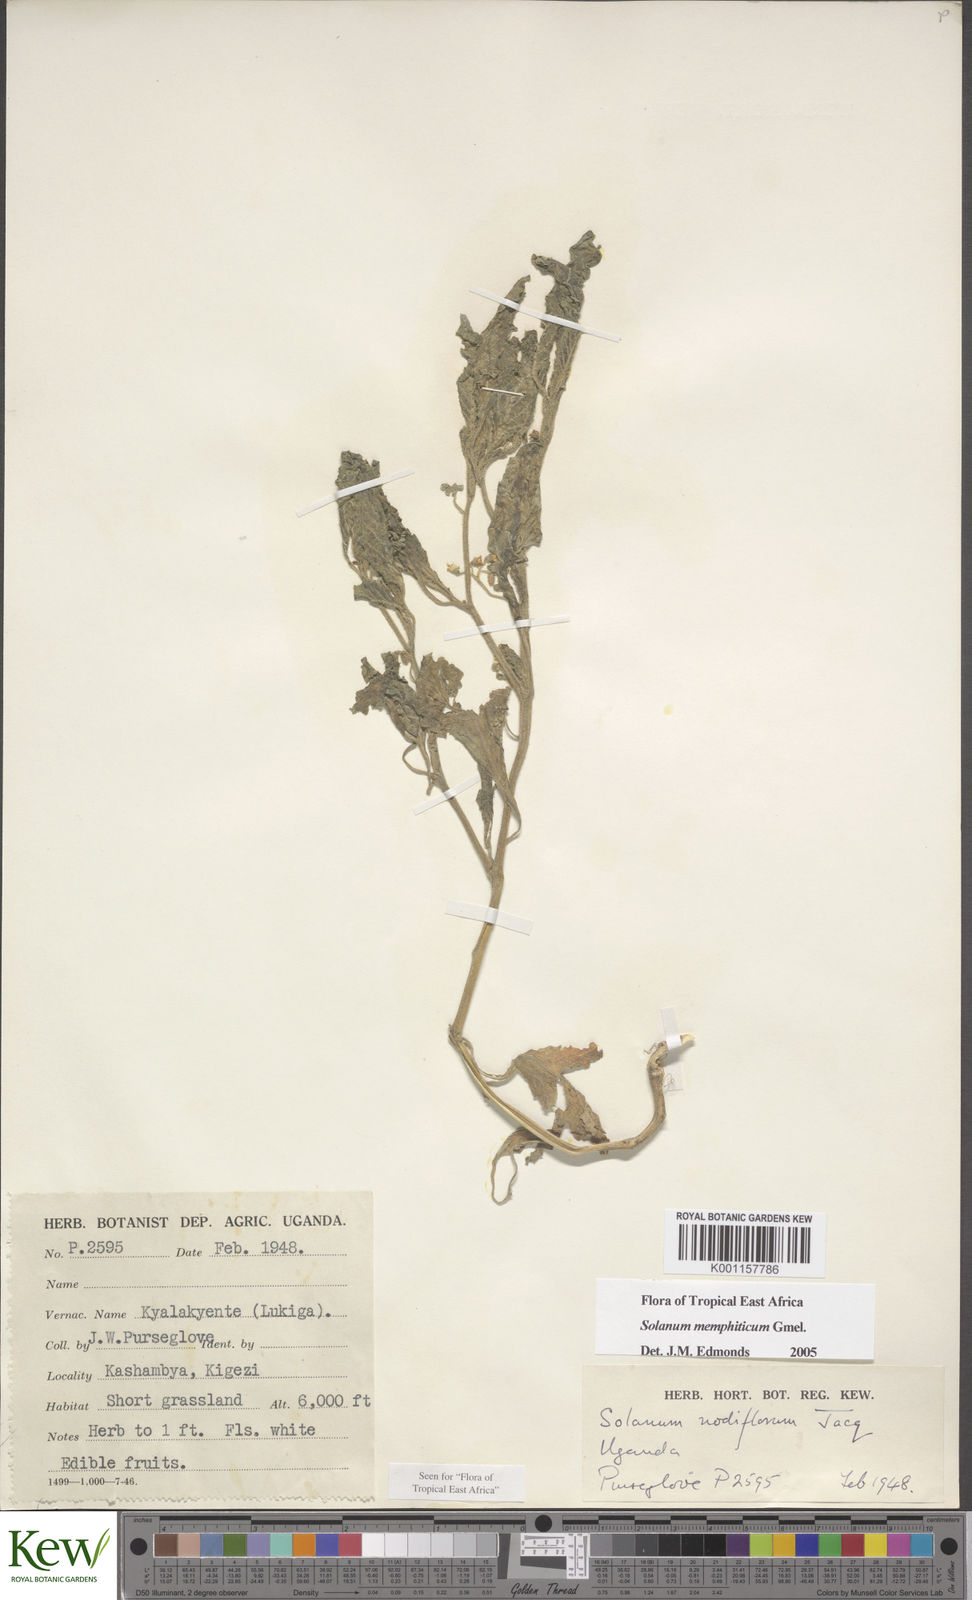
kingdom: Plantae
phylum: Tracheophyta
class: Magnoliopsida
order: Solanales
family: Solanaceae
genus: Solanum
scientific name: Solanum memphiticum
